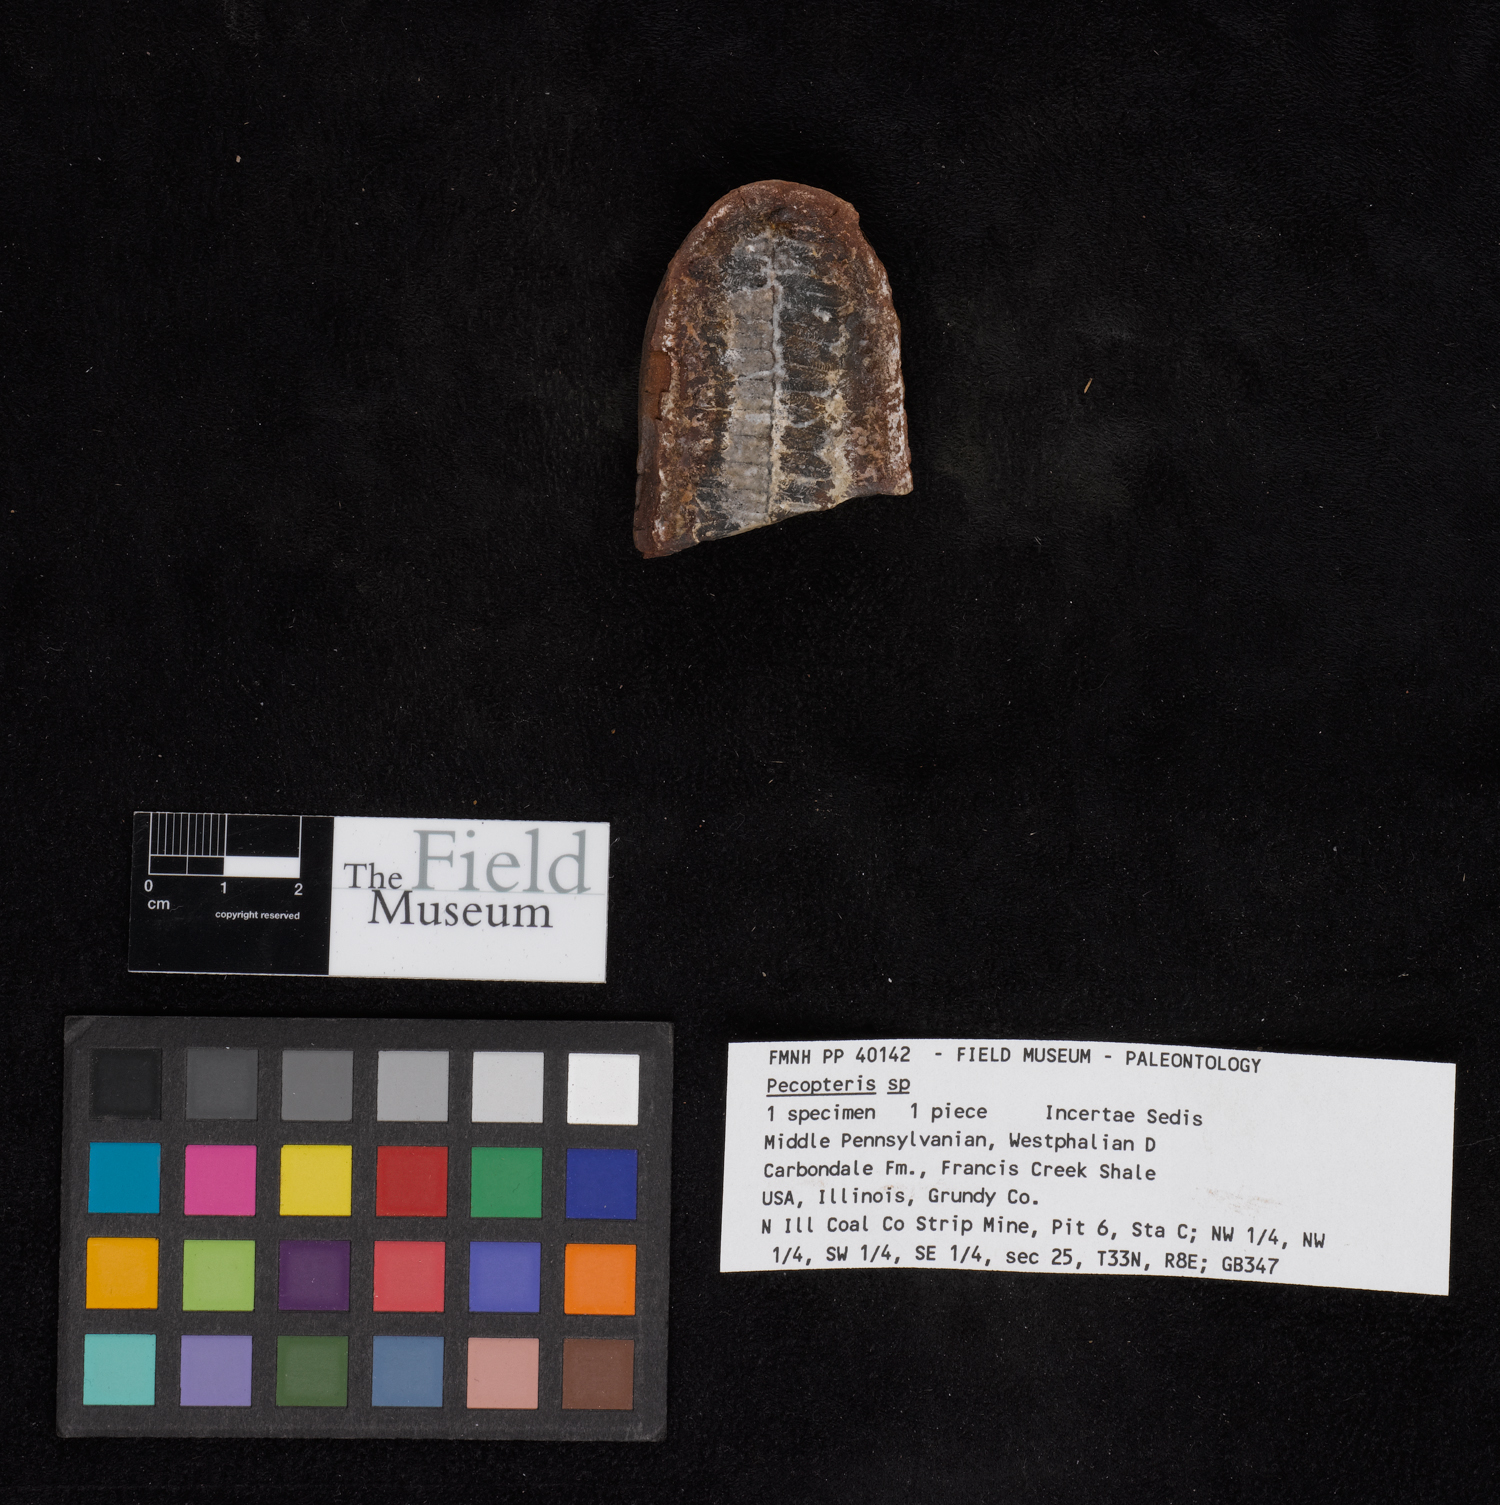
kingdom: Plantae
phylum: Tracheophyta
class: Polypodiopsida
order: Marattiales
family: Asterothecaceae
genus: Pecopteris
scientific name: Pecopteris
